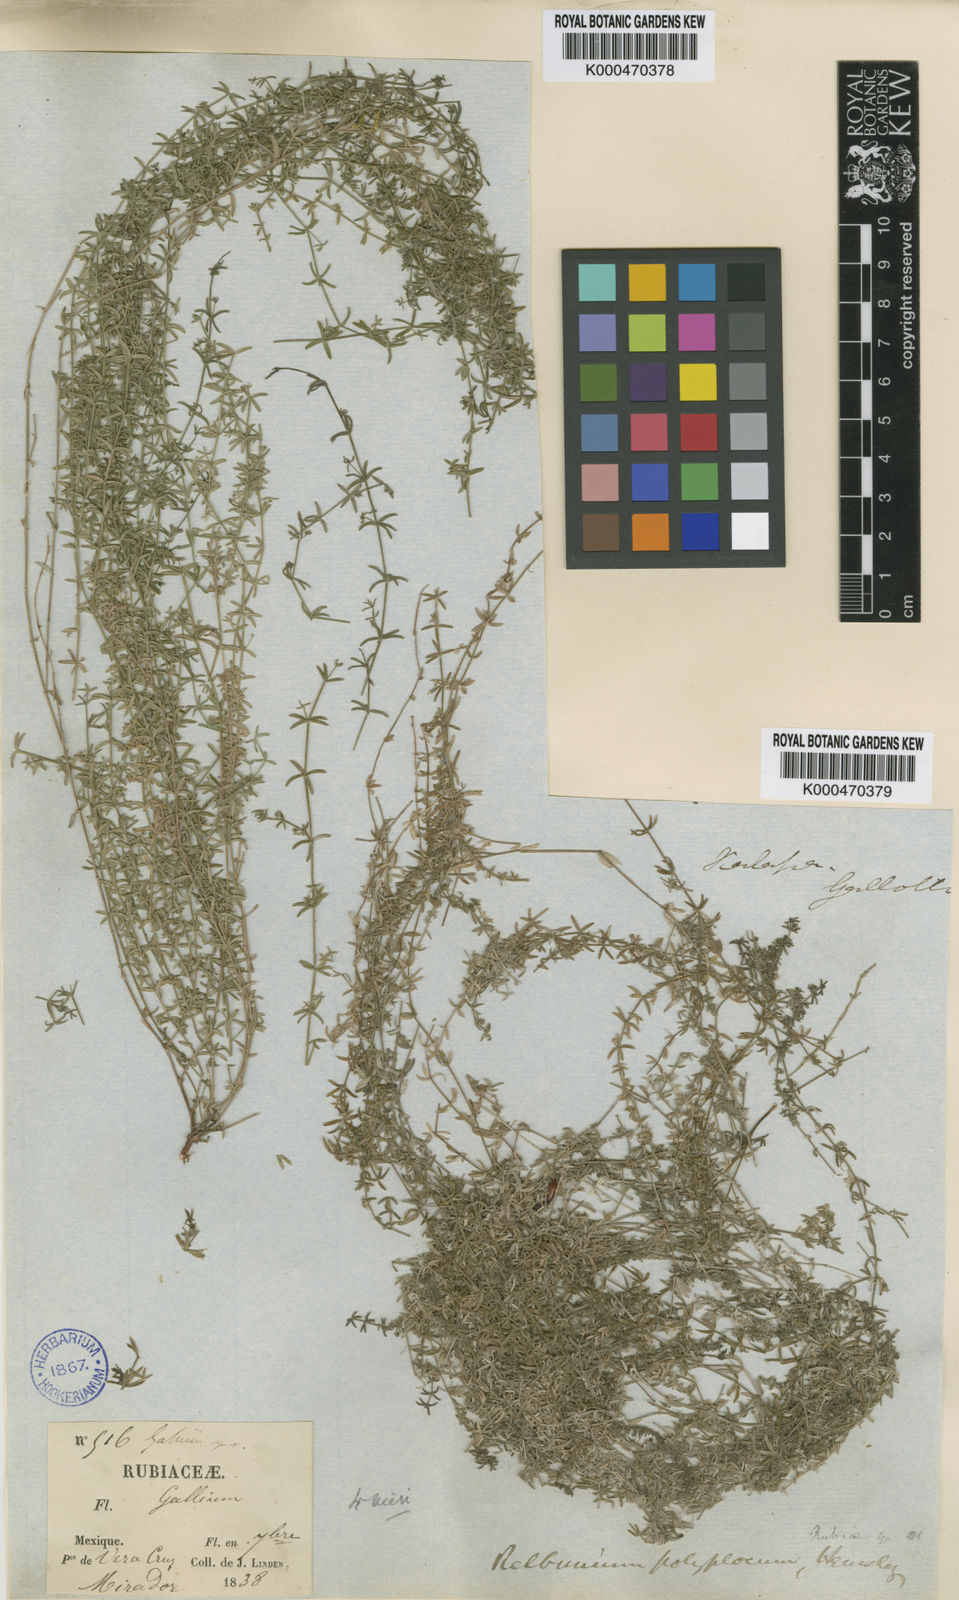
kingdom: Plantae
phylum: Tracheophyta
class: Magnoliopsida
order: Gentianales
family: Rubiaceae
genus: Galium
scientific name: Galium microphyllum
